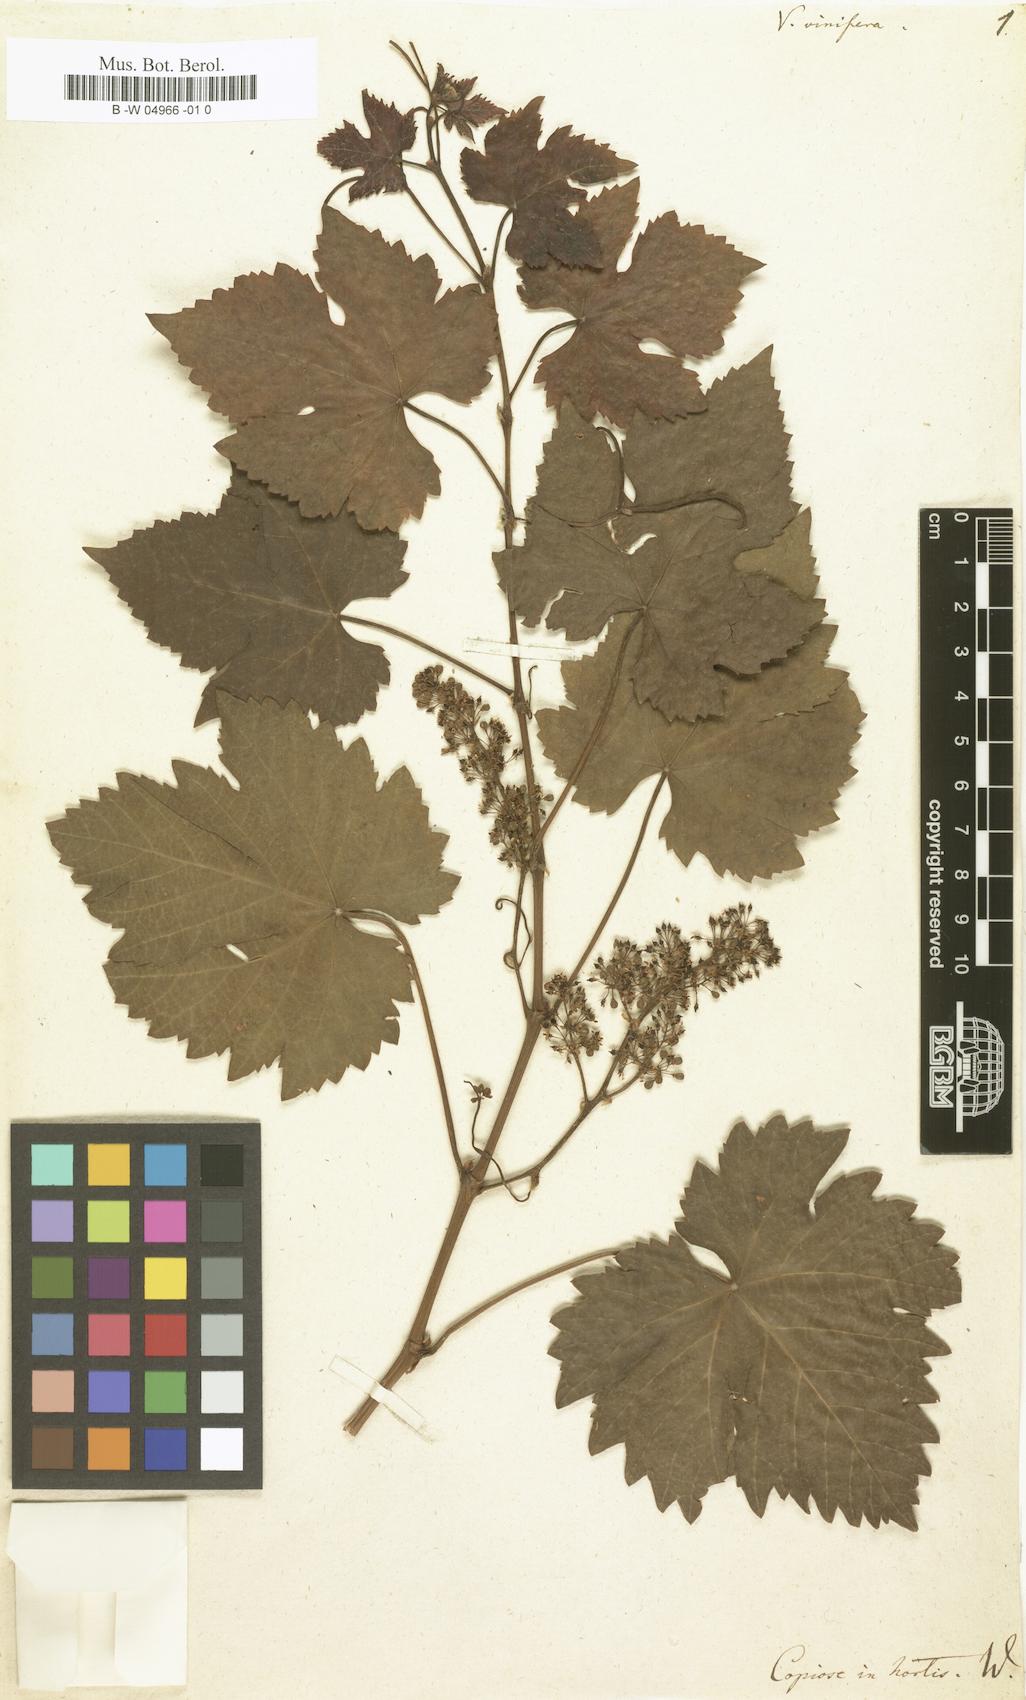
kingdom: Plantae
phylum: Tracheophyta
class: Magnoliopsida
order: Vitales
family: Vitaceae
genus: Vitis
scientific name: Vitis vinifera
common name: Grape-vine
